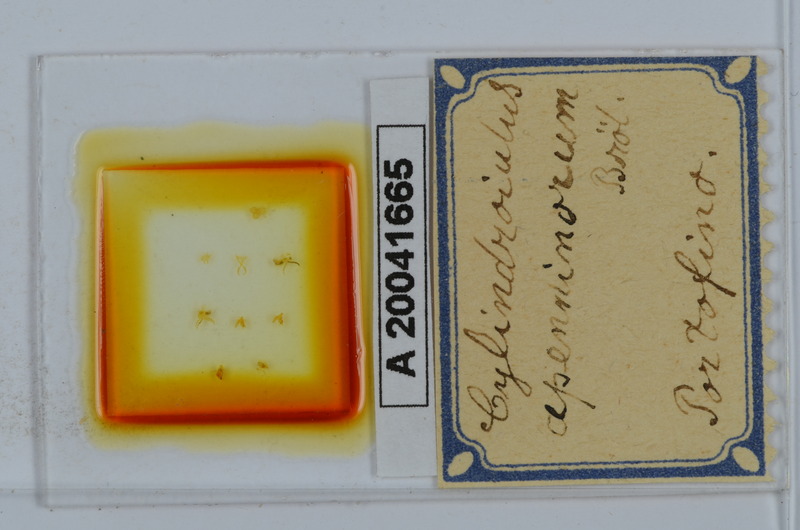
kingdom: Animalia
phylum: Arthropoda
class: Diplopoda
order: Julida
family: Julidae
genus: Cylindroiulus
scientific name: Cylindroiulus apenninorum
